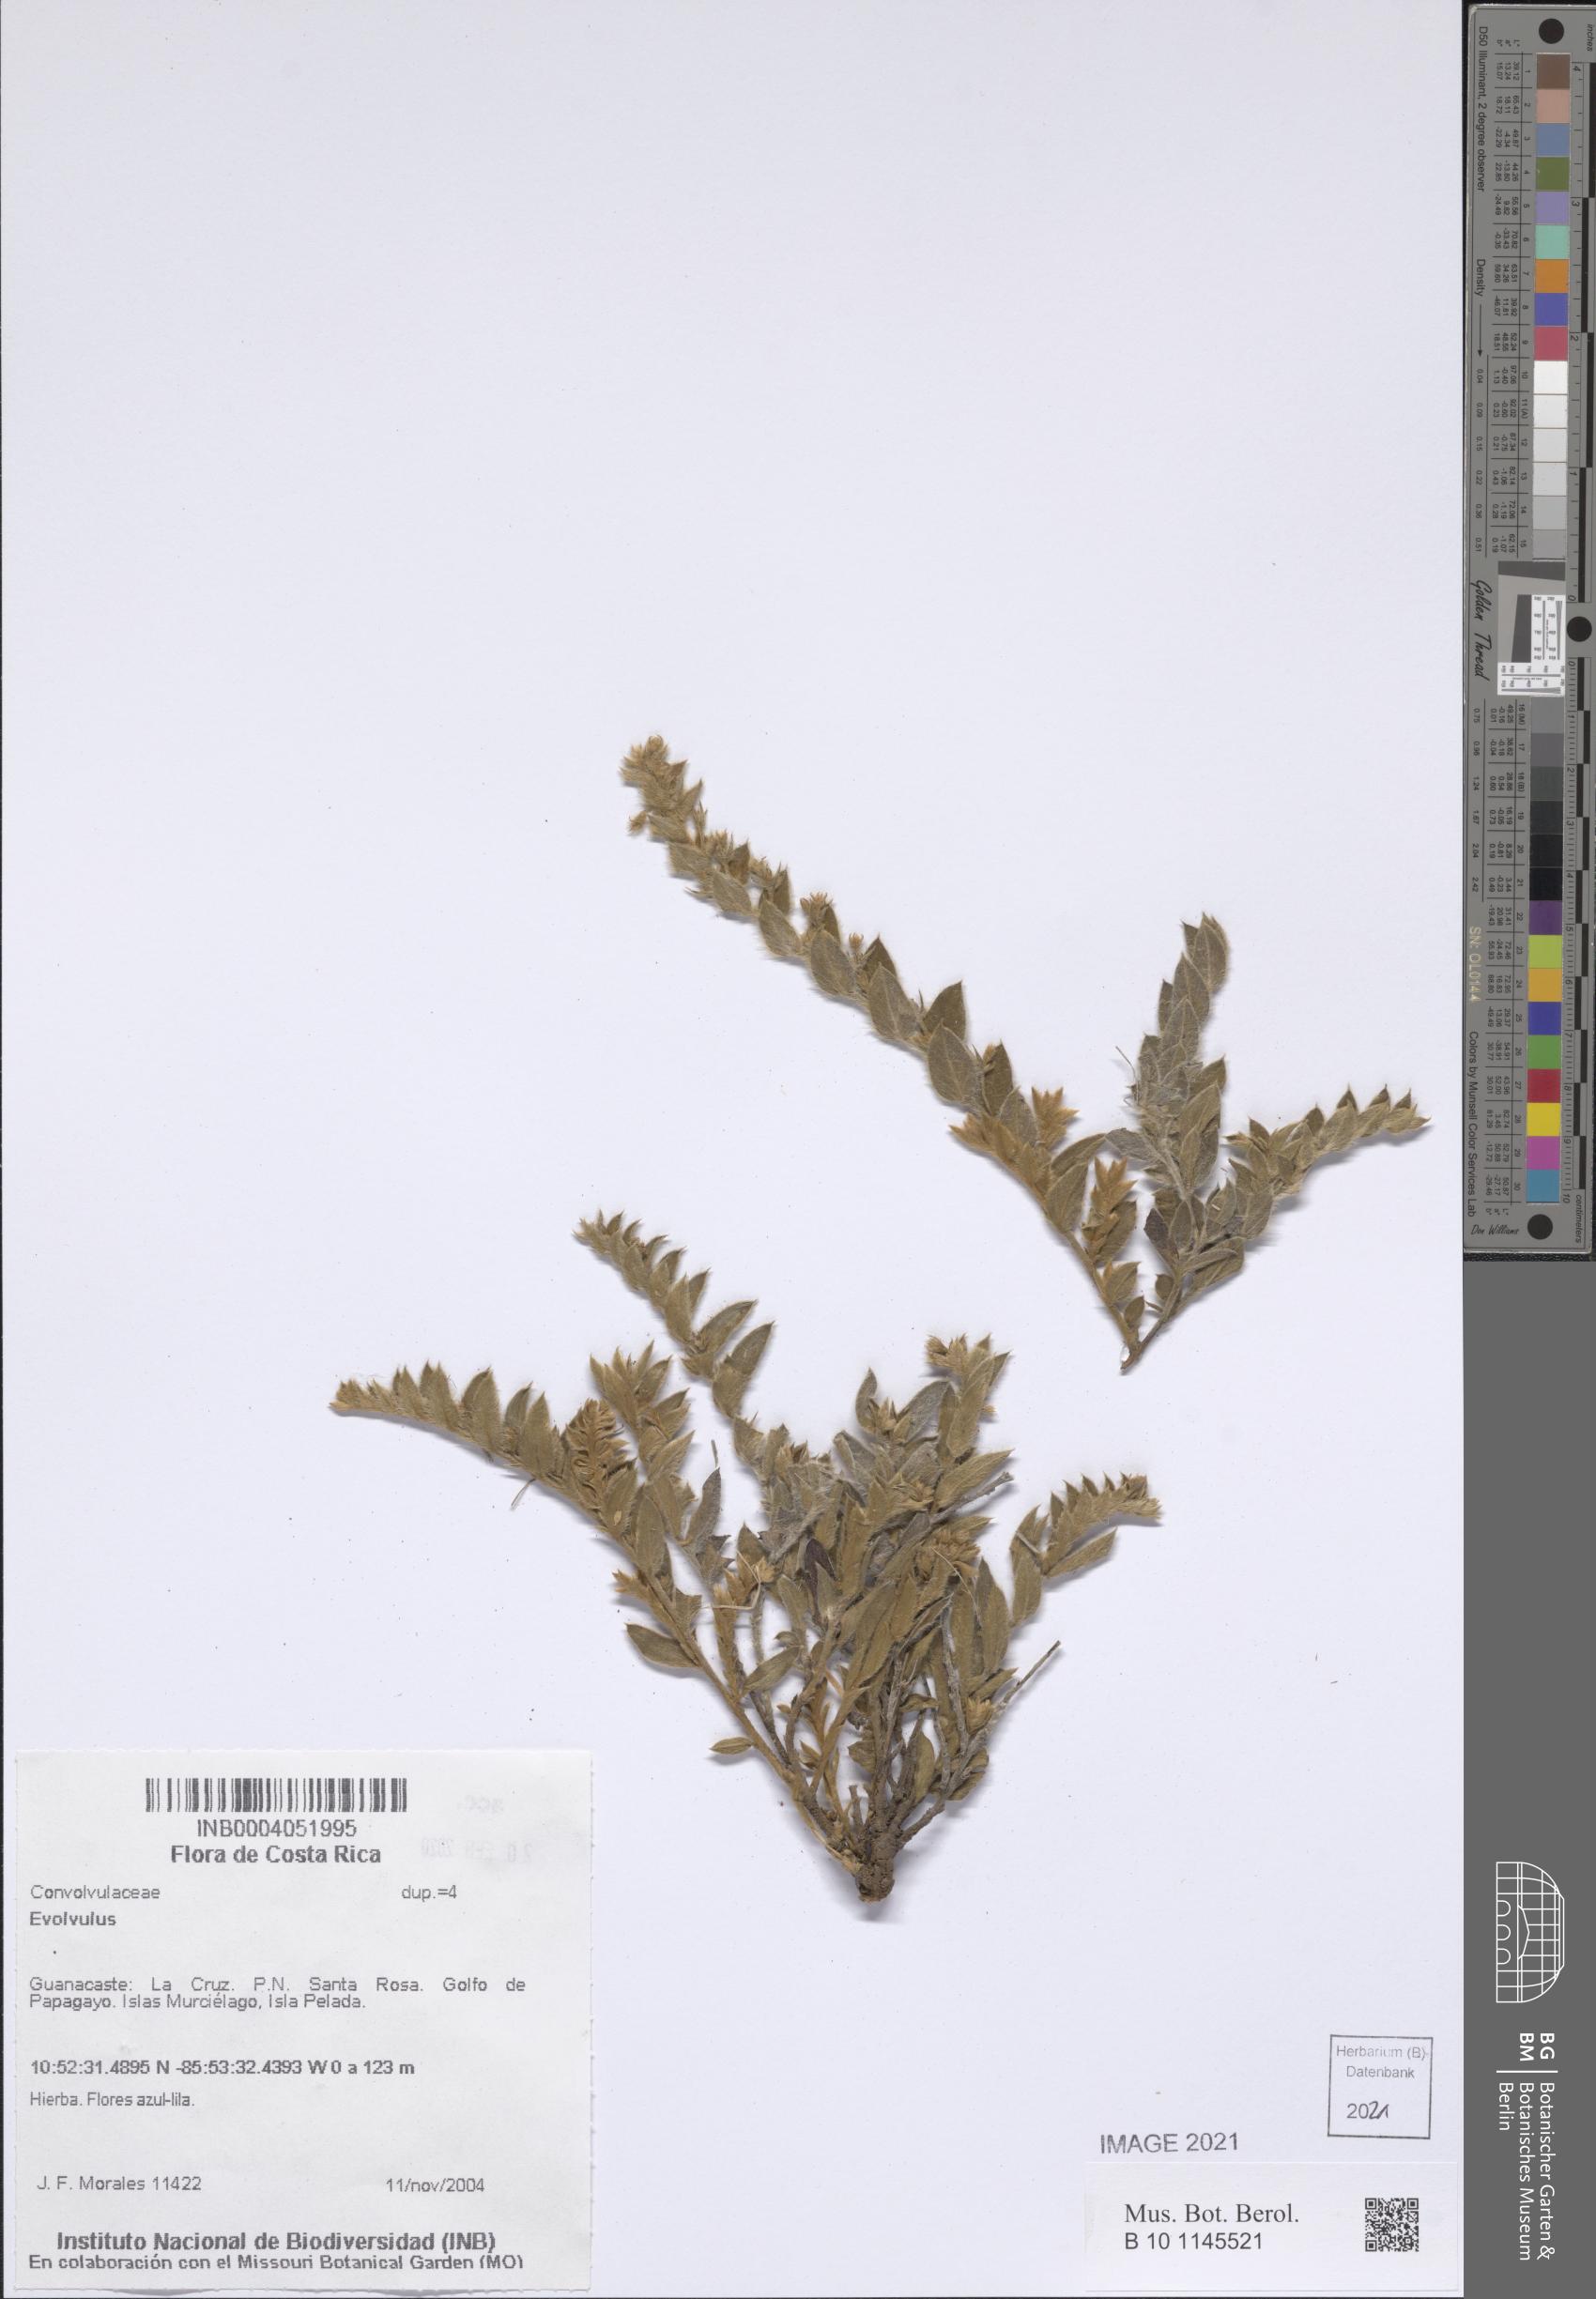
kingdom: Plantae
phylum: Tracheophyta
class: Magnoliopsida
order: Solanales
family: Convolvulaceae
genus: Evolvulus
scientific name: Evolvulus
